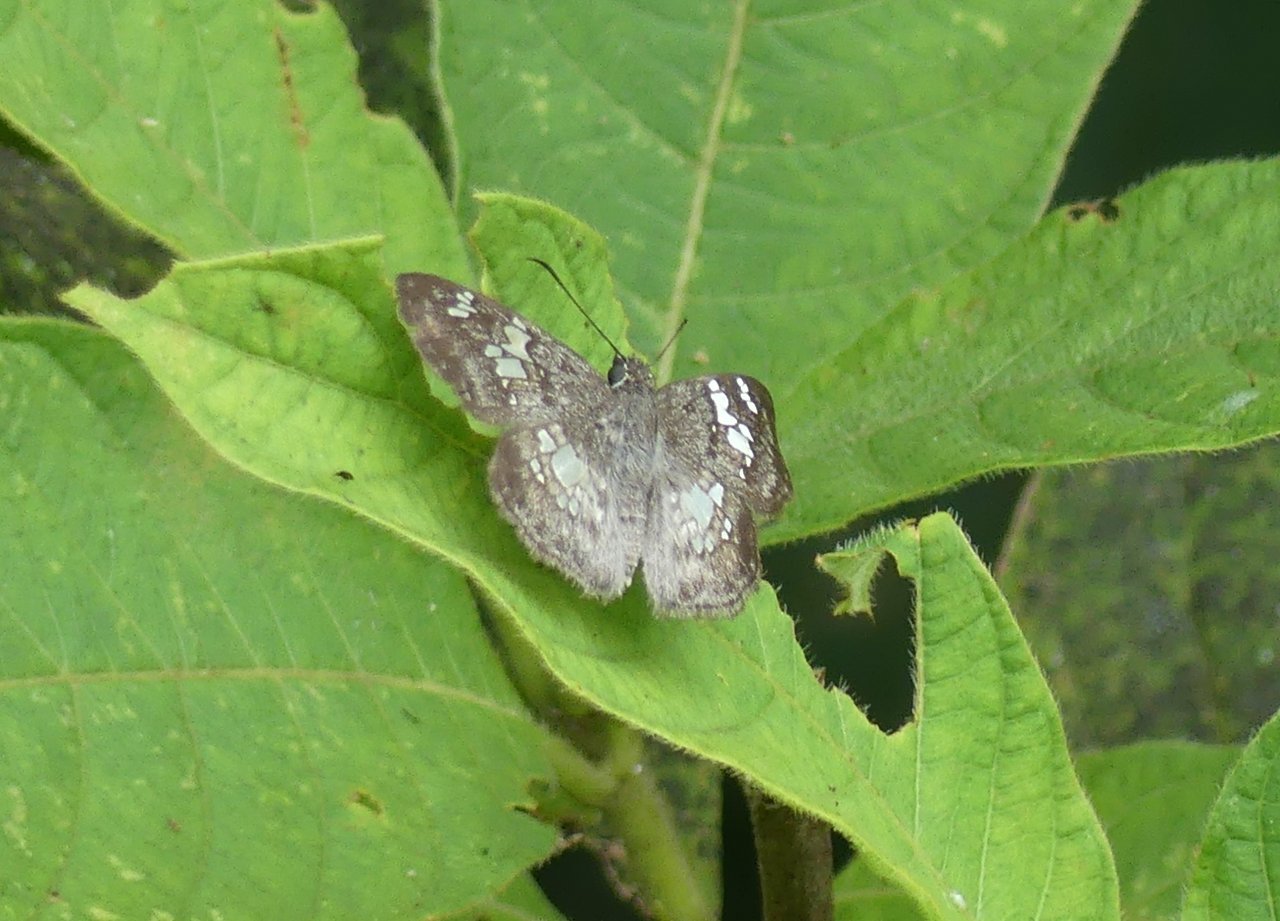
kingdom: Animalia
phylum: Arthropoda
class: Insecta
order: Lepidoptera
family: Hesperiidae
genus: Xenophanes
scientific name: Xenophanes tryxus
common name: Glassy-winged Skipper
